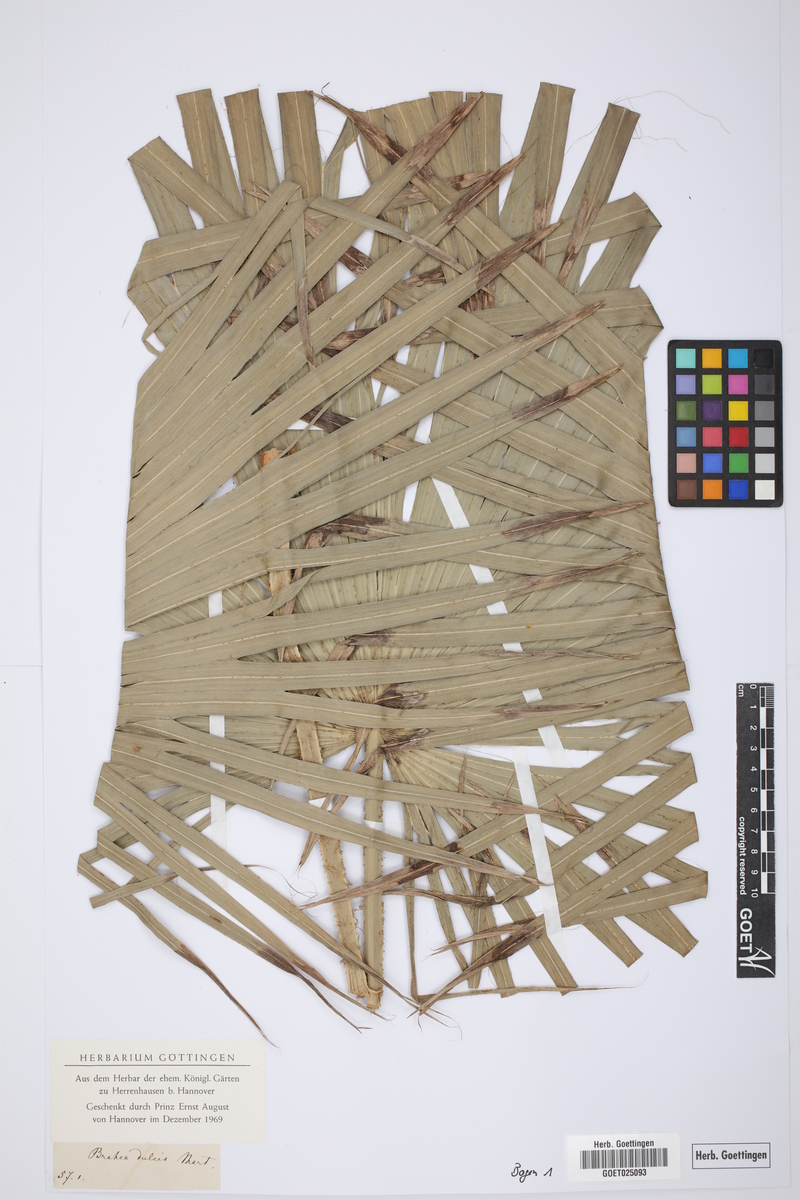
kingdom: Plantae
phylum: Tracheophyta
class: Liliopsida
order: Arecales
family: Arecaceae
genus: Brahea
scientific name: Brahea dulcis
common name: Apak palm
